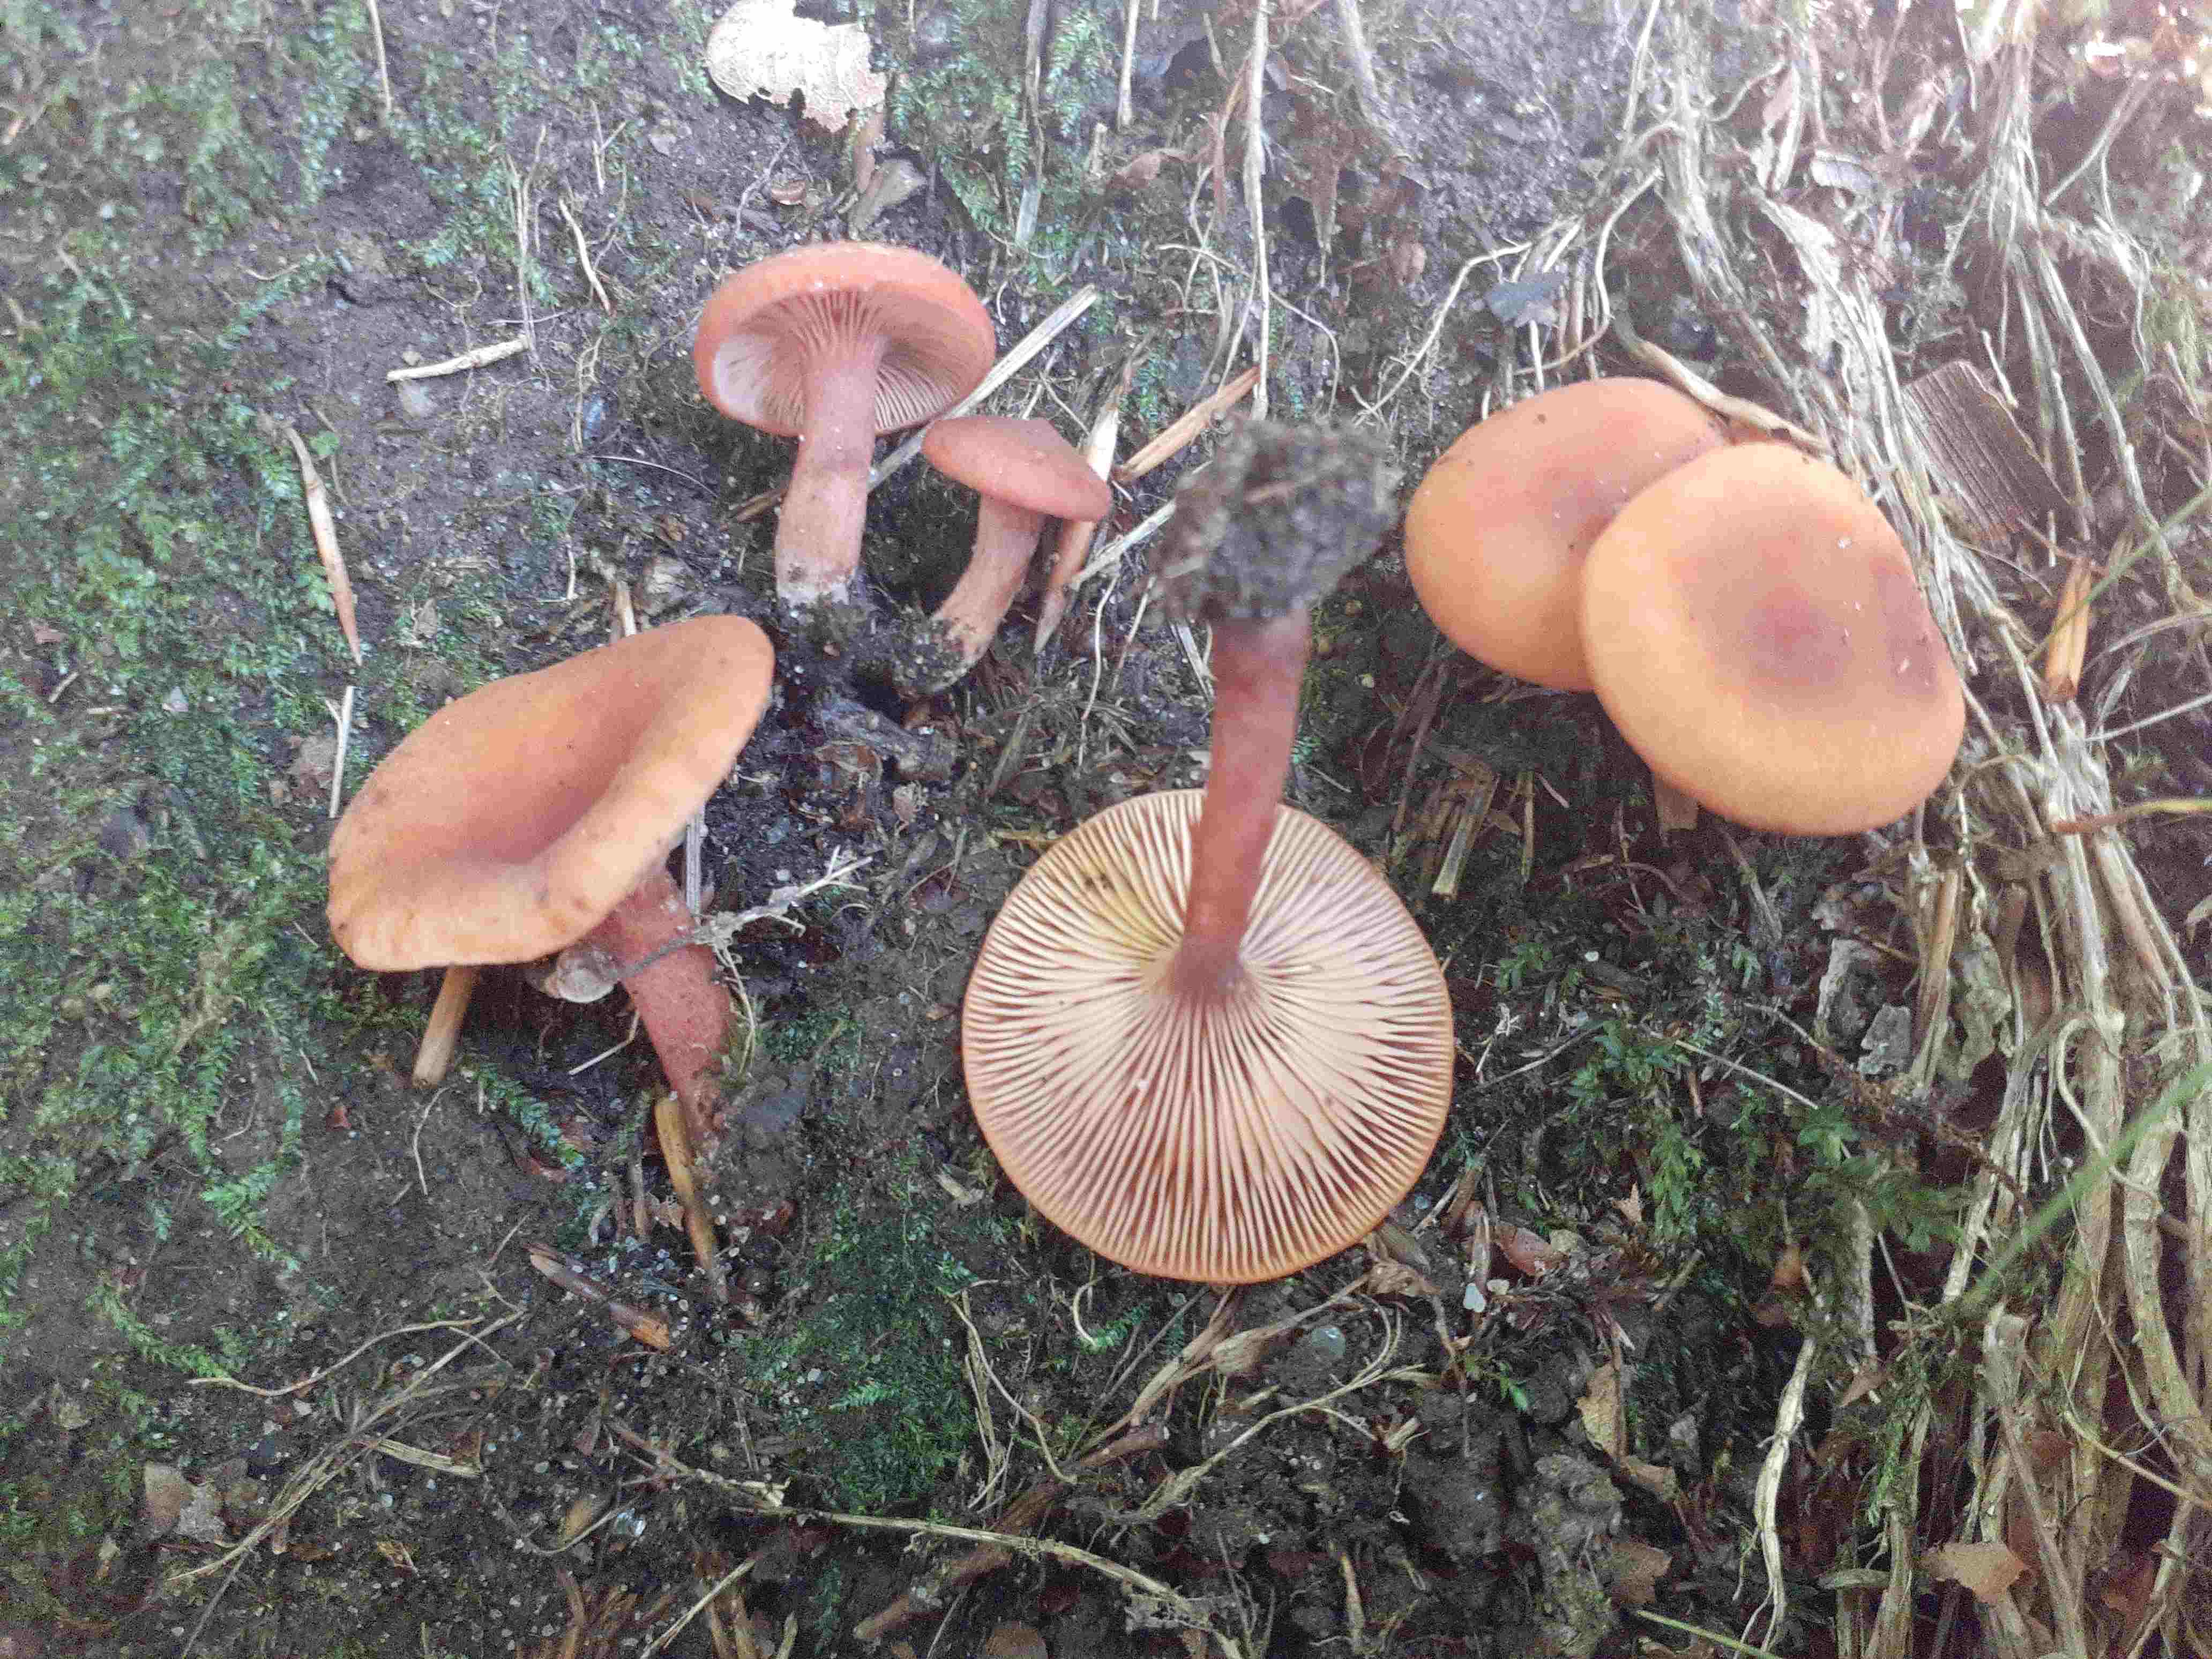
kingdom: Fungi
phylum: Basidiomycota
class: Agaricomycetes
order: Russulales
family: Russulaceae
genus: Lactarius
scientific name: Lactarius rostratus
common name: nubret mælkehat
